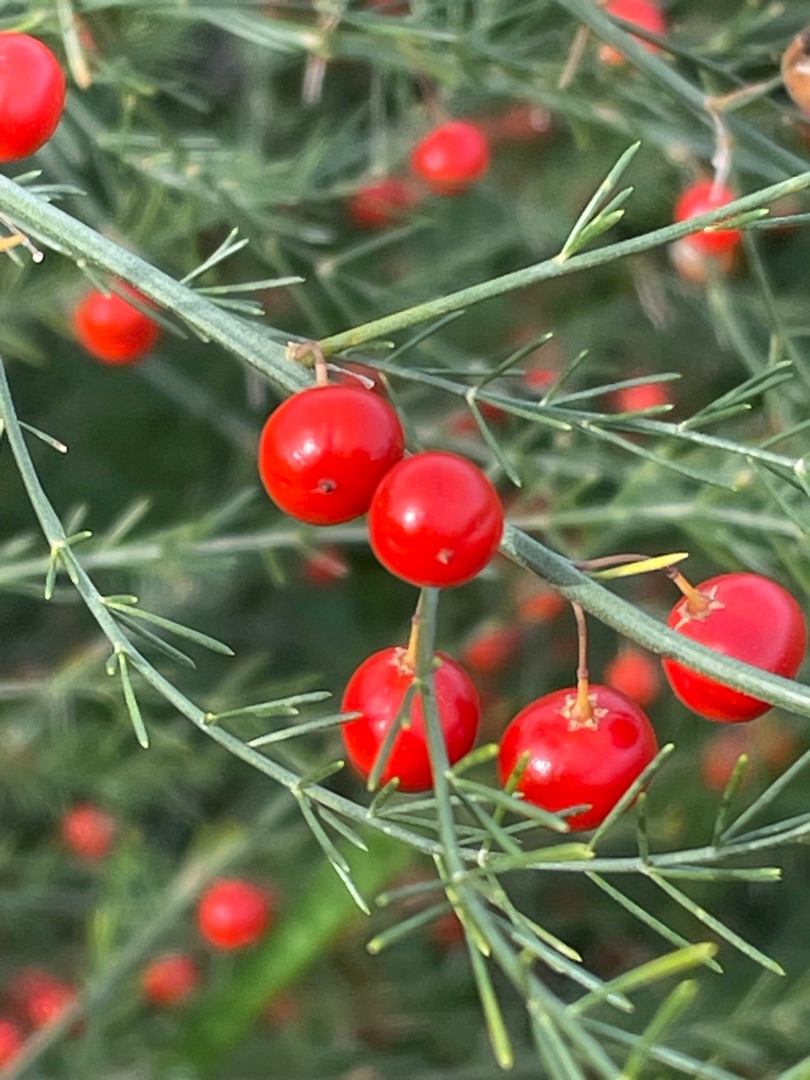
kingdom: Plantae
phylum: Tracheophyta
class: Liliopsida
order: Asparagales
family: Asparagaceae
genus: Asparagus
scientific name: Asparagus officinalis
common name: Asparges
